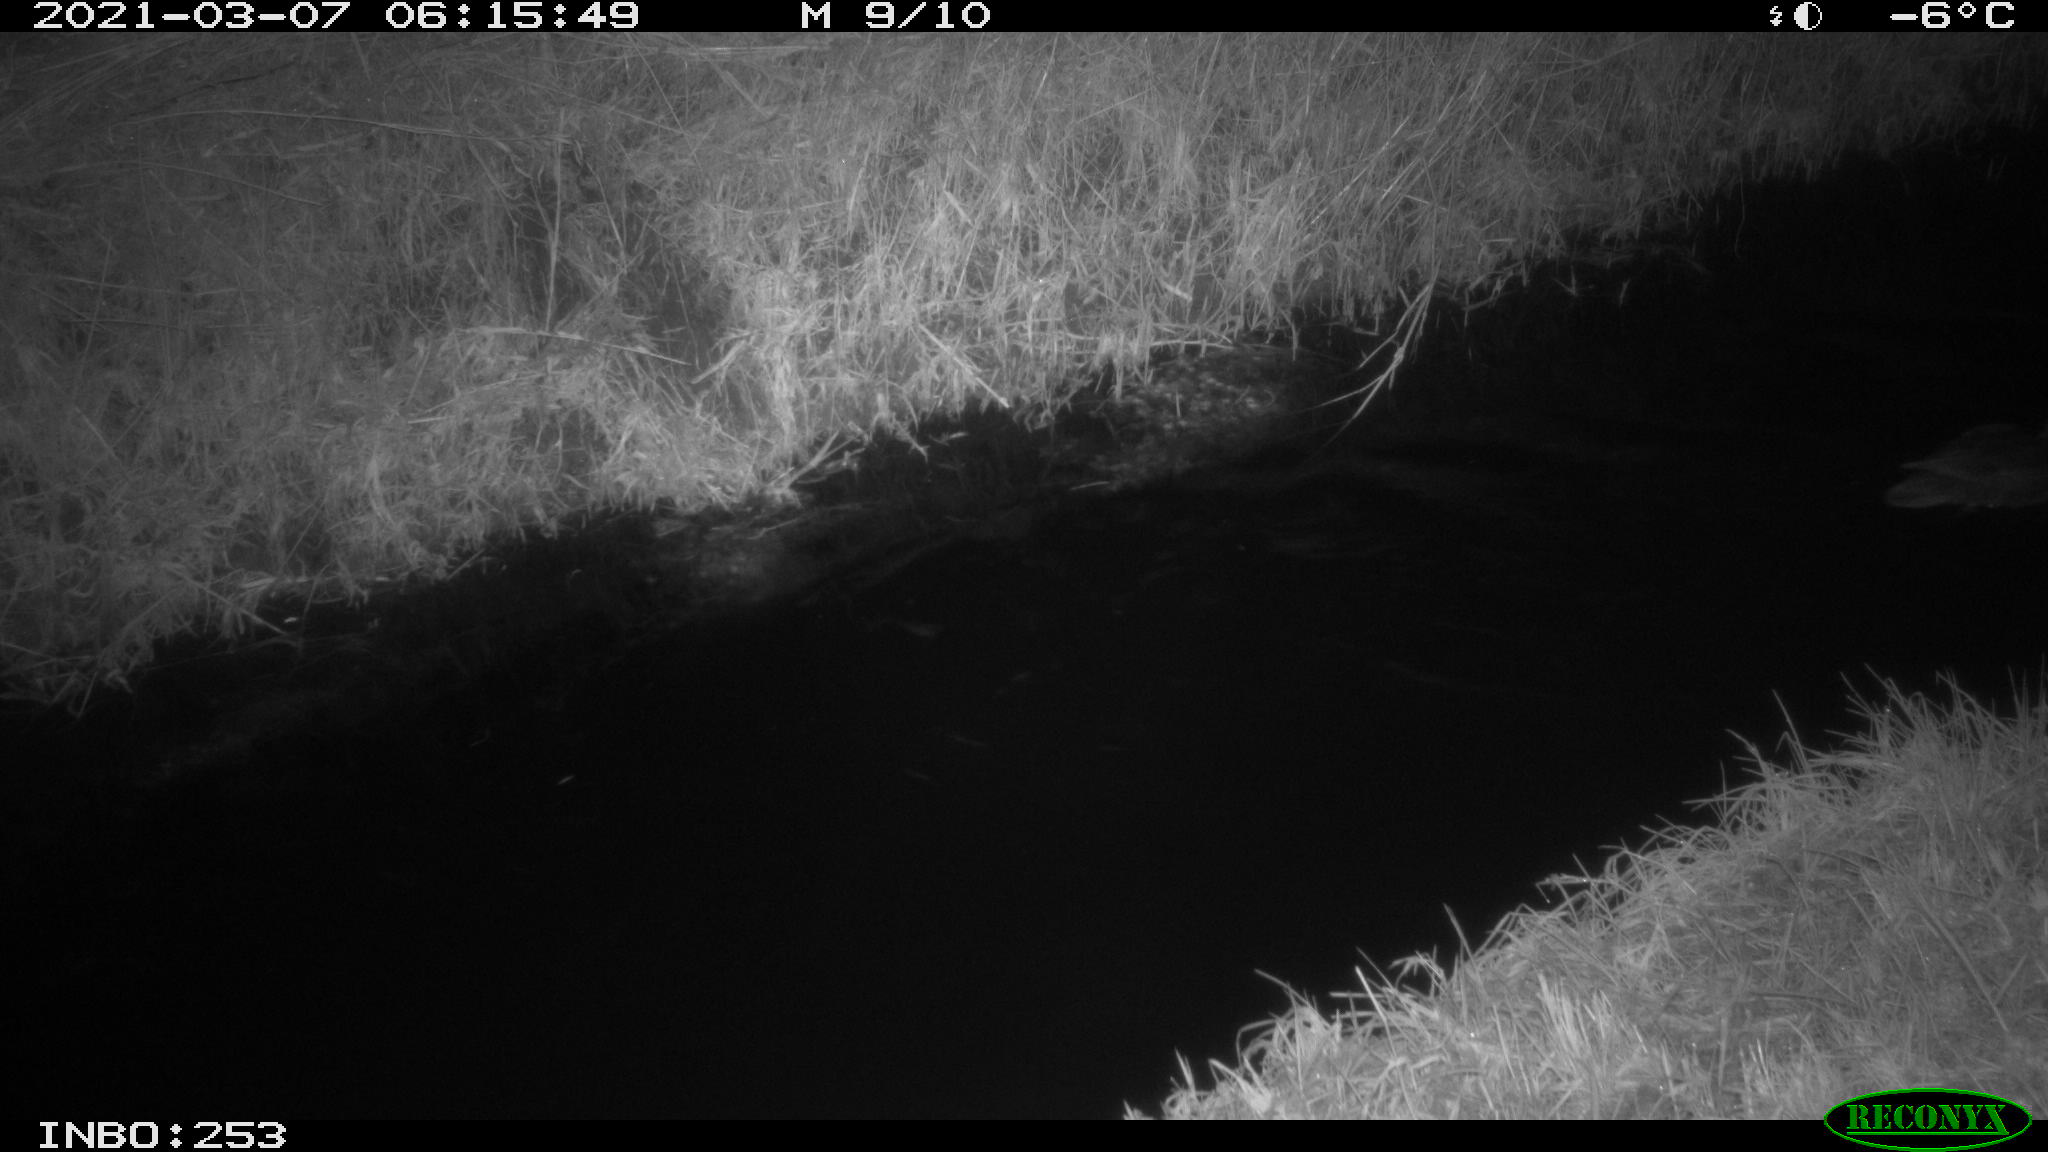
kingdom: Animalia
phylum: Chordata
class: Aves
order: Anseriformes
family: Anatidae
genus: Anas
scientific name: Anas platyrhynchos
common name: Mallard
